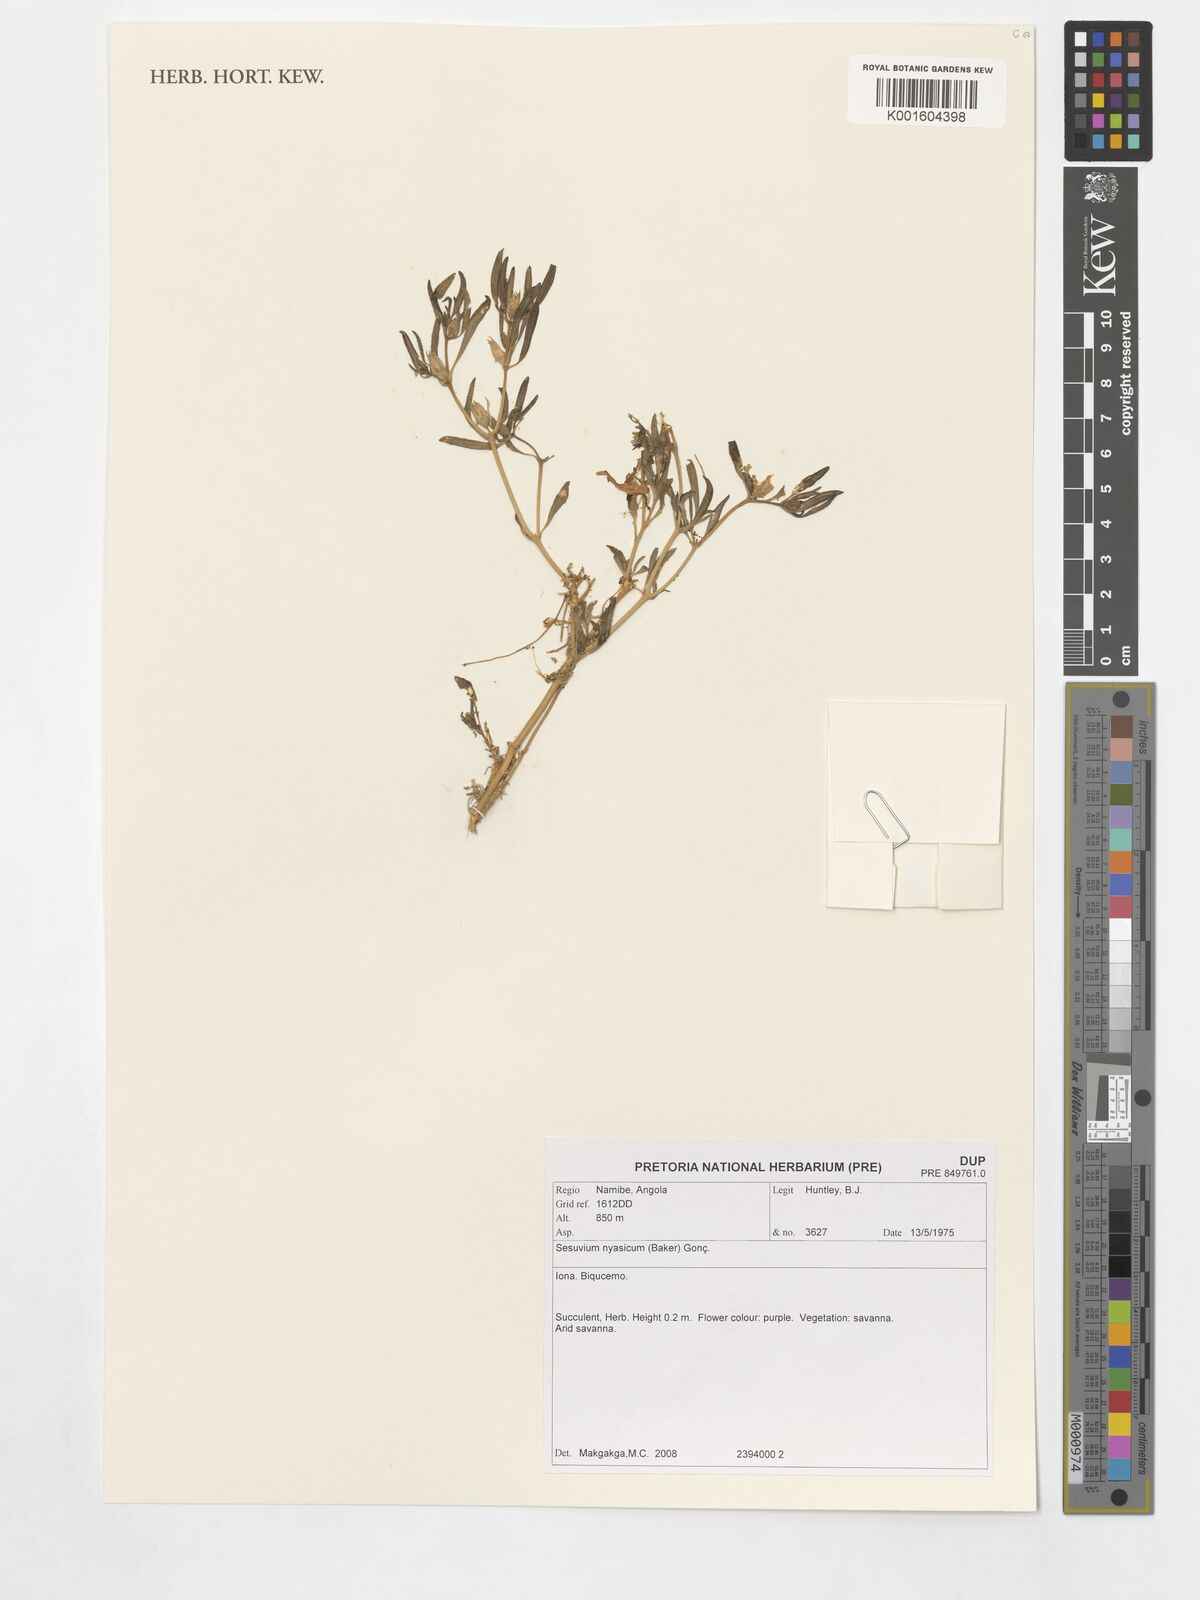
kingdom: Plantae
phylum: Tracheophyta
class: Magnoliopsida
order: Caryophyllales
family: Aizoaceae
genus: Sesuvium
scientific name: Sesuvium hydaspicum
